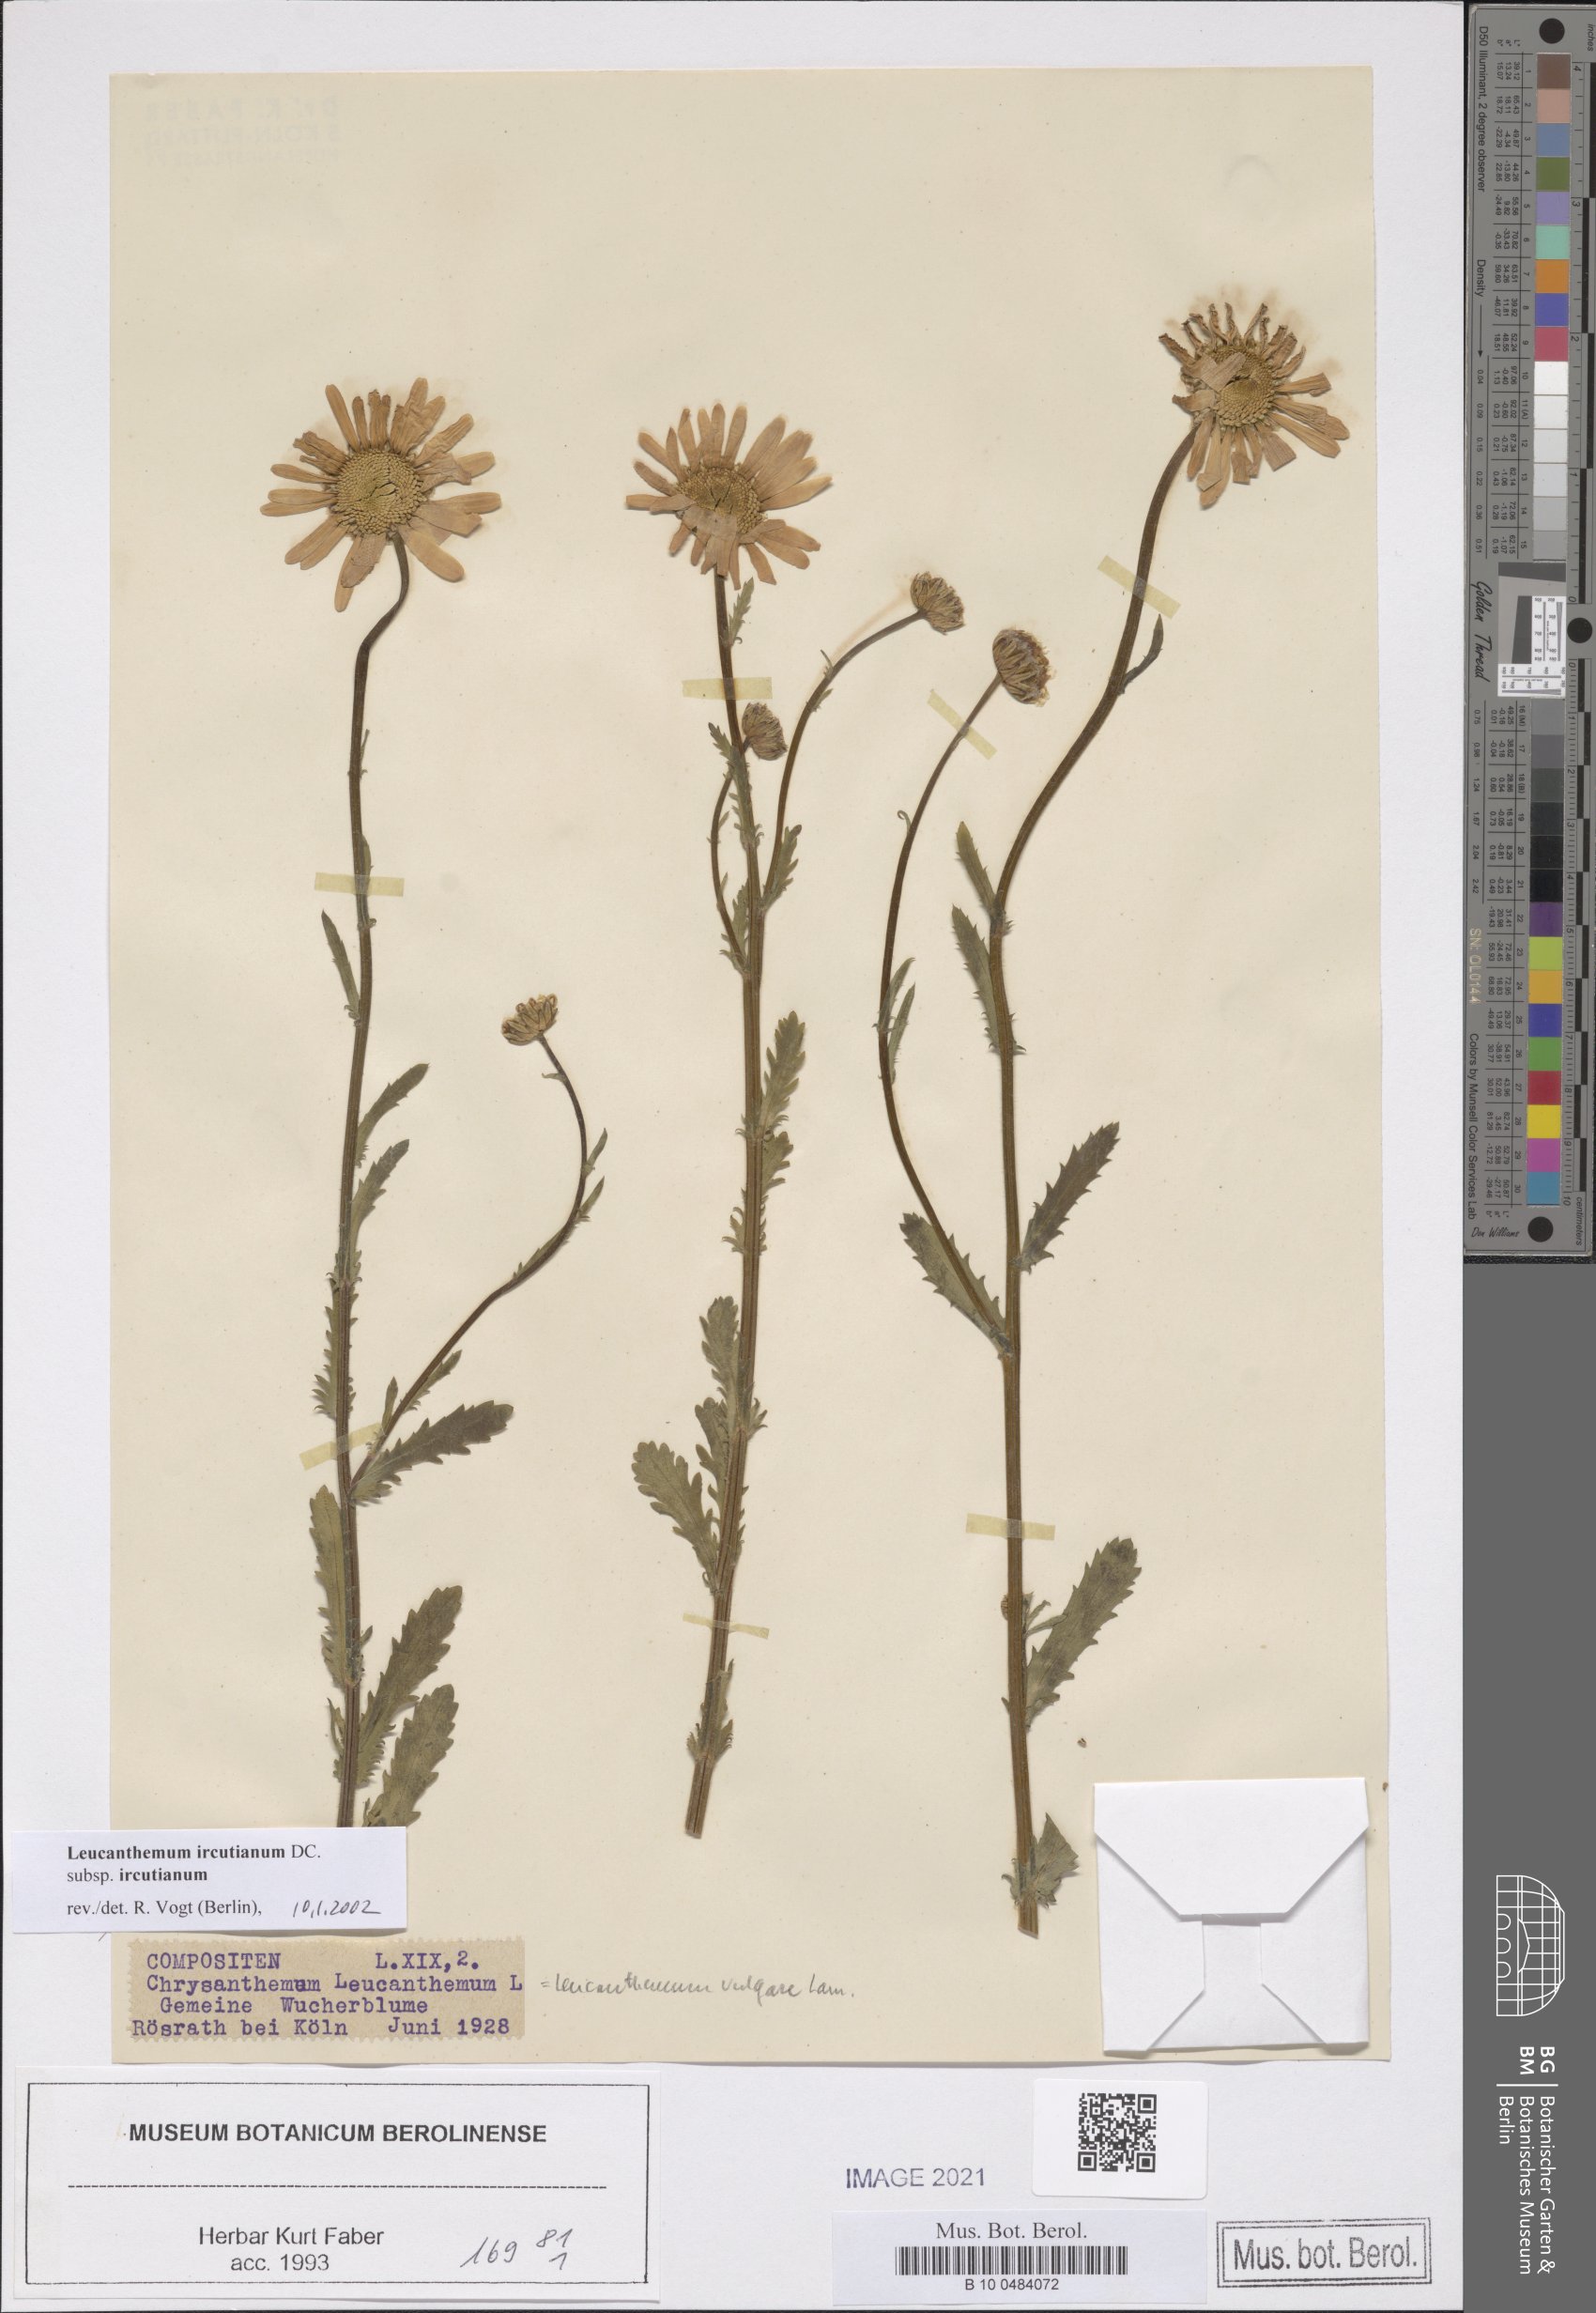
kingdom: Plantae
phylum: Tracheophyta
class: Magnoliopsida
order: Asterales
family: Asteraceae
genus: Leucanthemum
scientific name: Leucanthemum ircutianum
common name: Daisy
